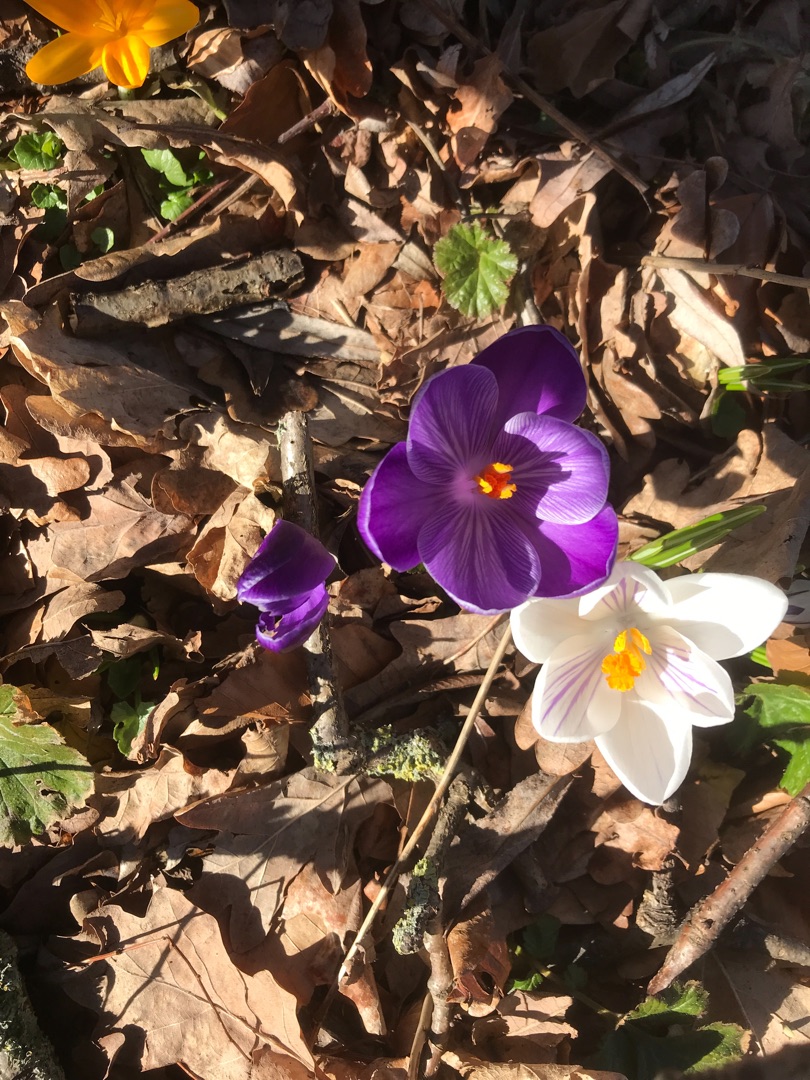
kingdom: Plantae
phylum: Tracheophyta
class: Liliopsida
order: Asparagales
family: Iridaceae
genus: Crocus
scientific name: Crocus vernus
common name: Vår-krokus
